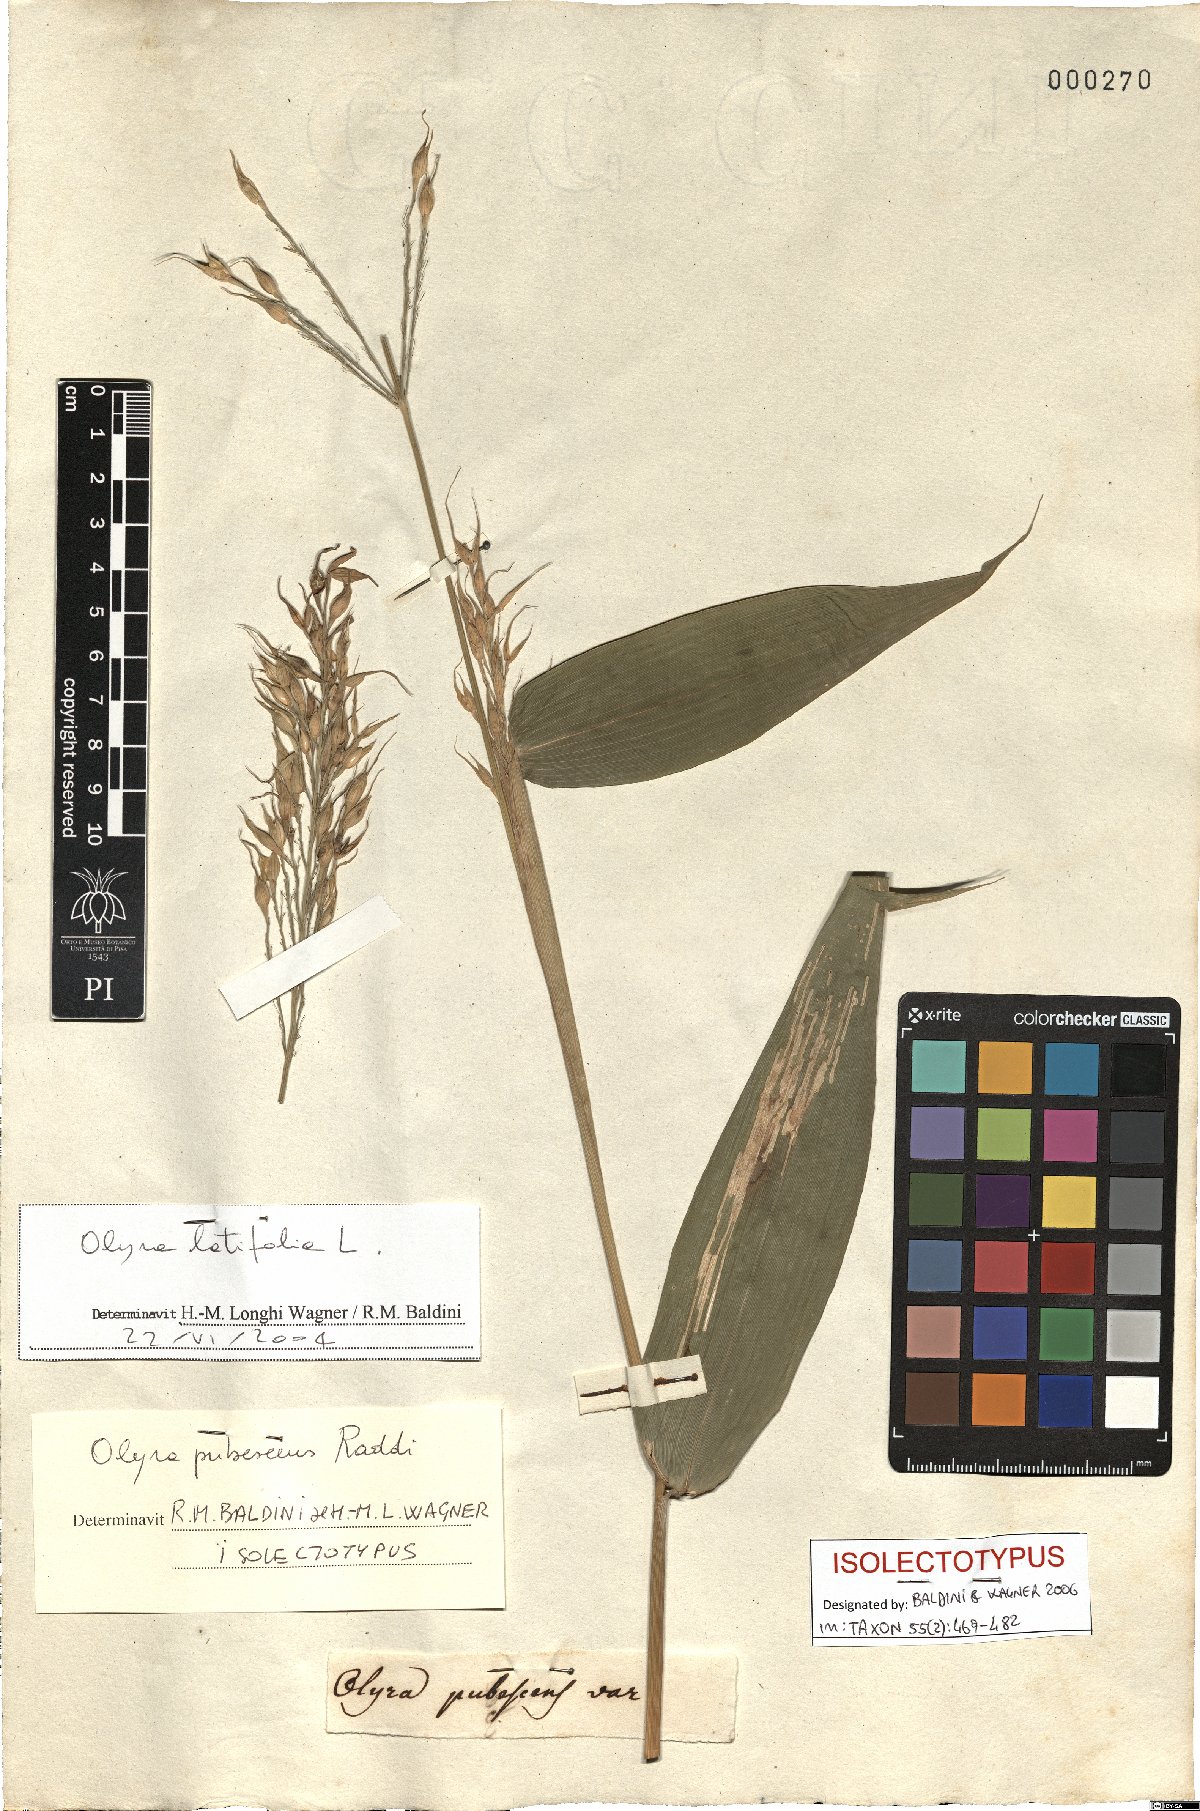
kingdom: Plantae
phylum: Tracheophyta
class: Liliopsida
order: Poales
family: Poaceae
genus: Olyra
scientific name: Olyra latifolia
